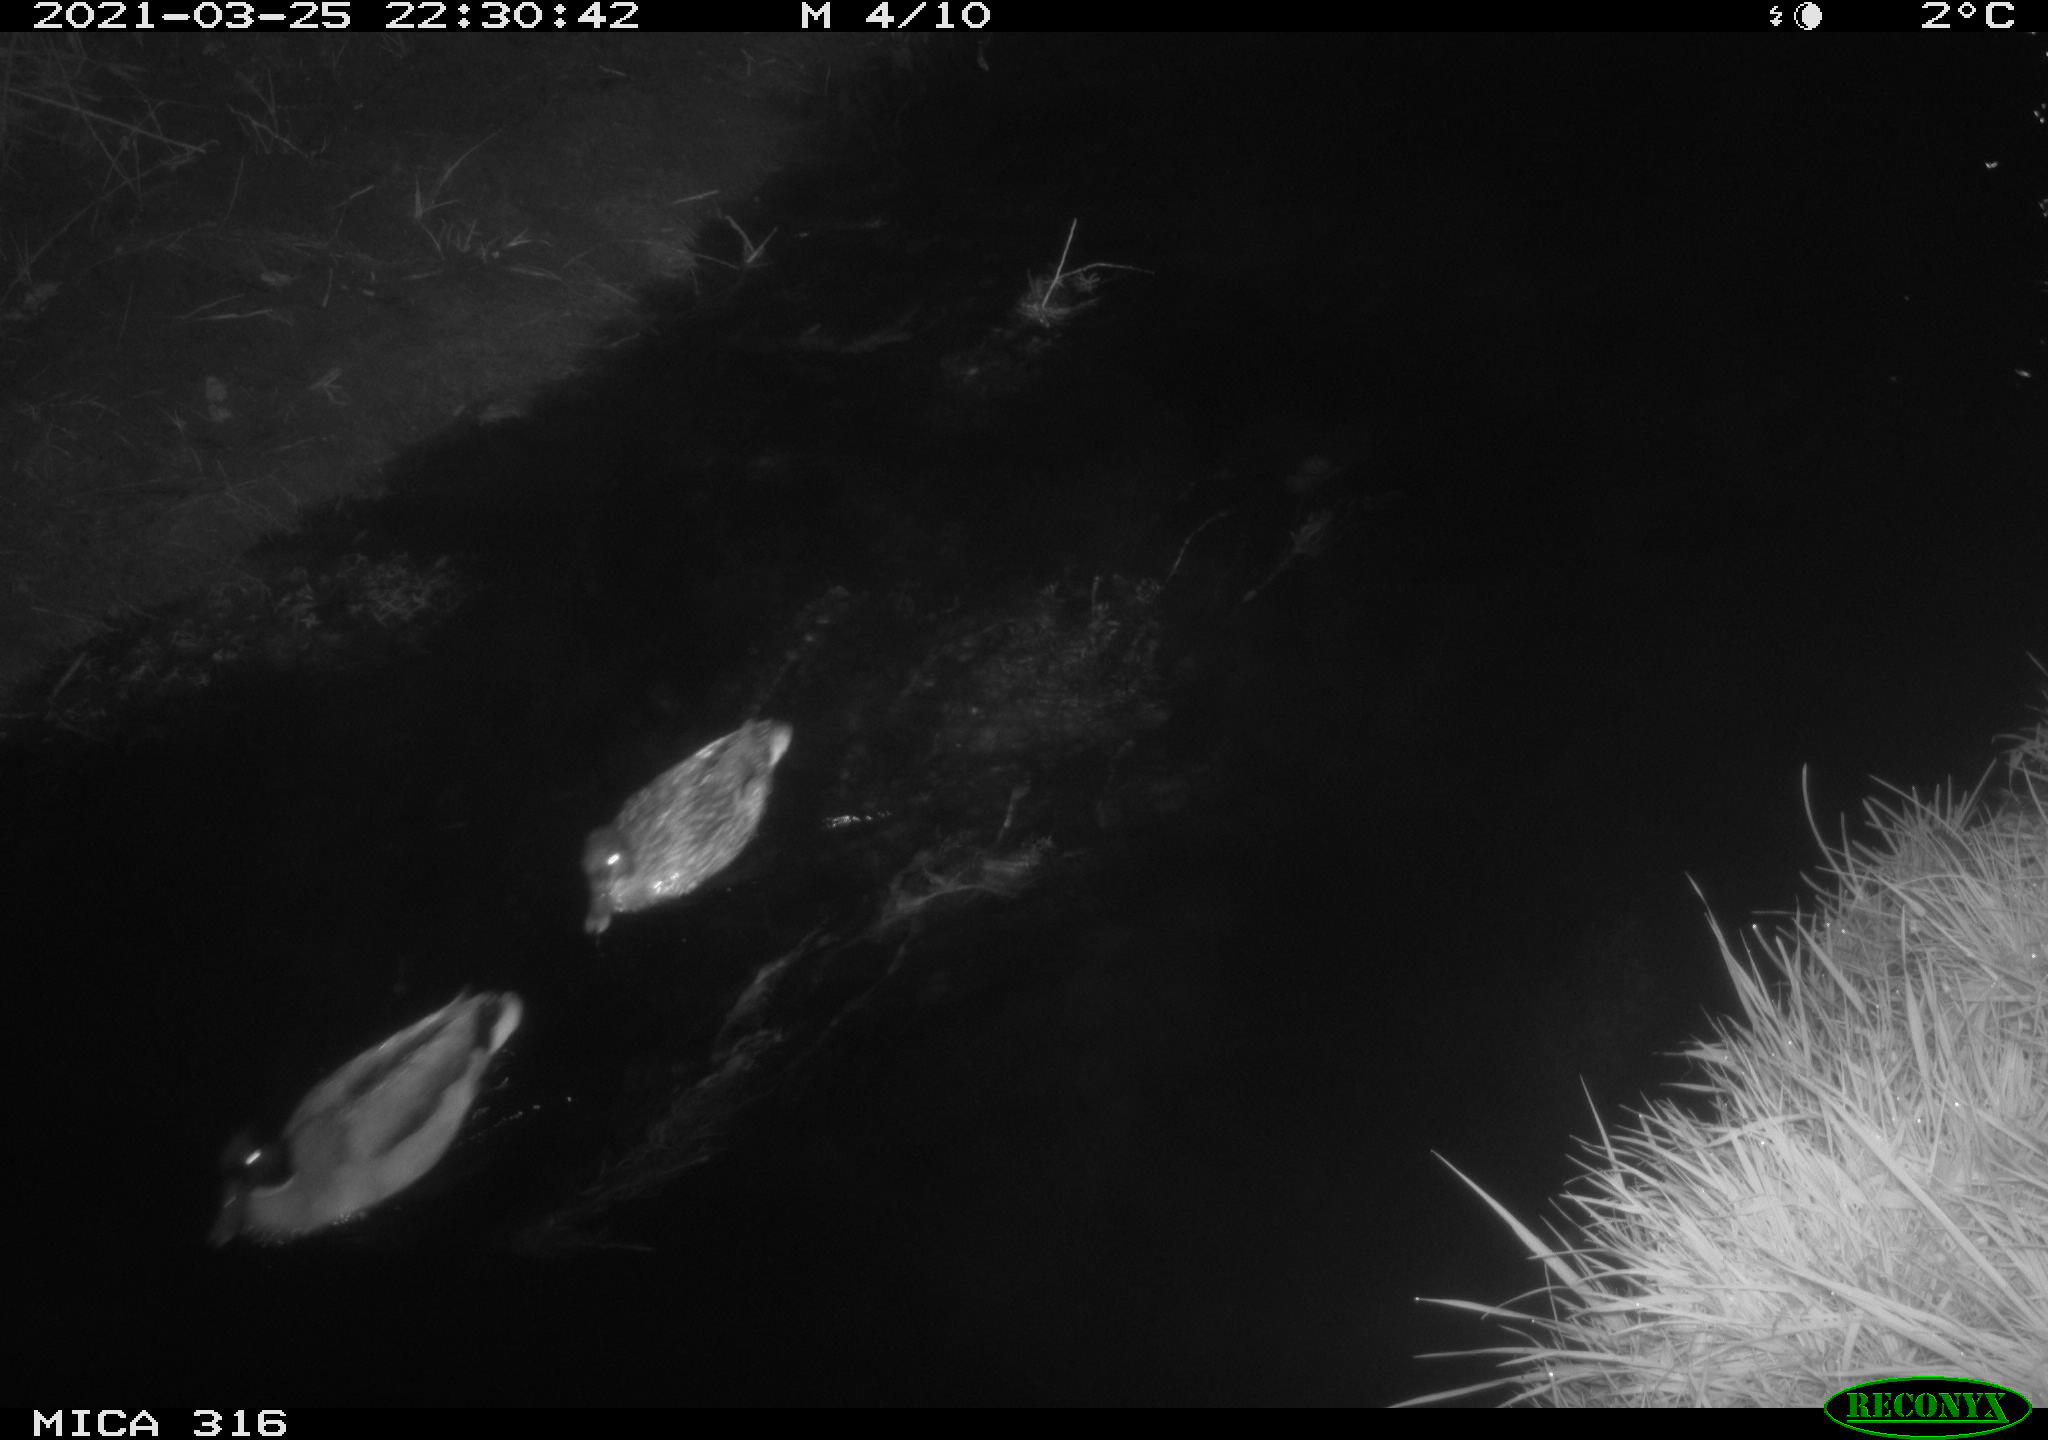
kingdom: Animalia
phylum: Chordata
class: Aves
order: Anseriformes
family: Anatidae
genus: Anas
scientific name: Anas platyrhynchos
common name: Mallard
